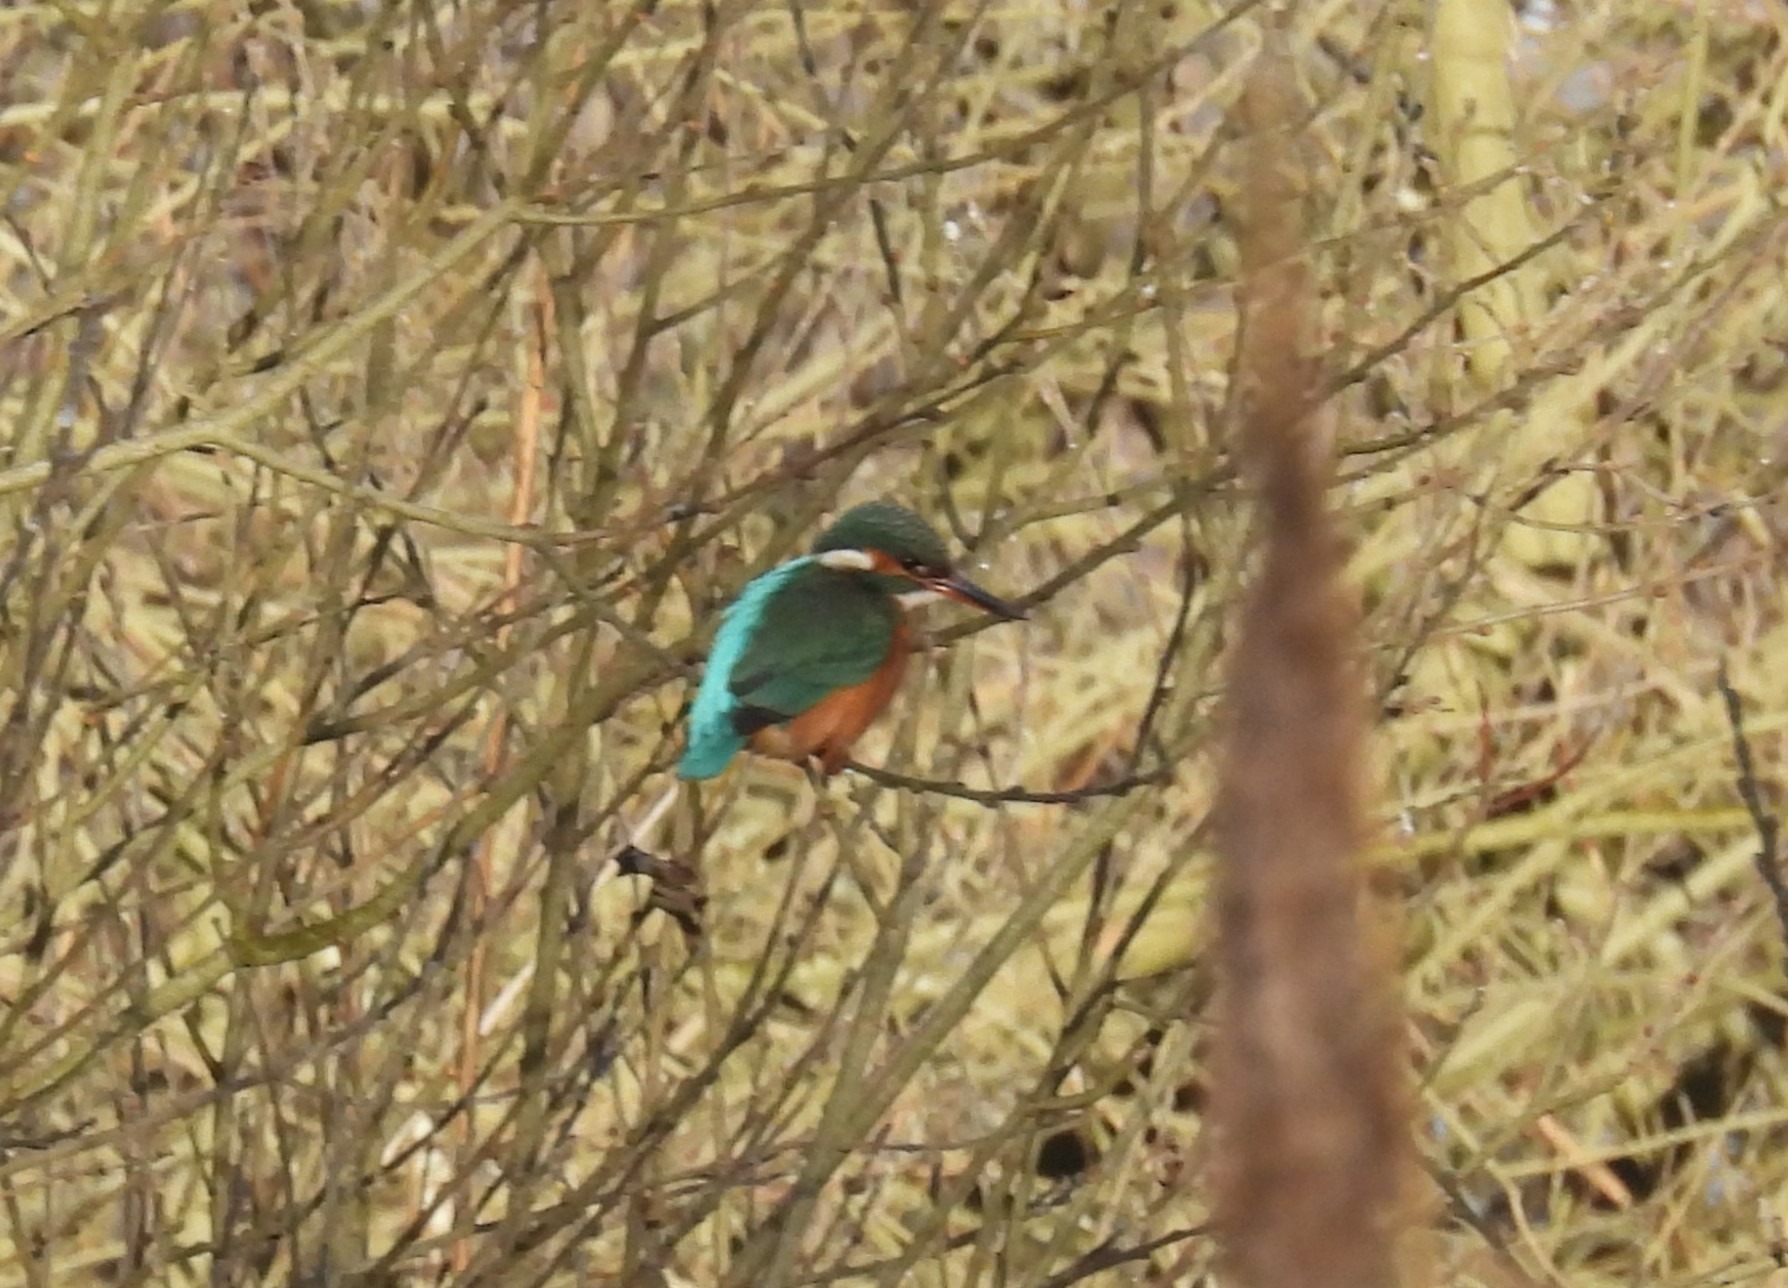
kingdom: Animalia
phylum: Chordata
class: Aves
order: Coraciiformes
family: Alcedinidae
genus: Alcedo
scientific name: Alcedo atthis
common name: Isfugl
